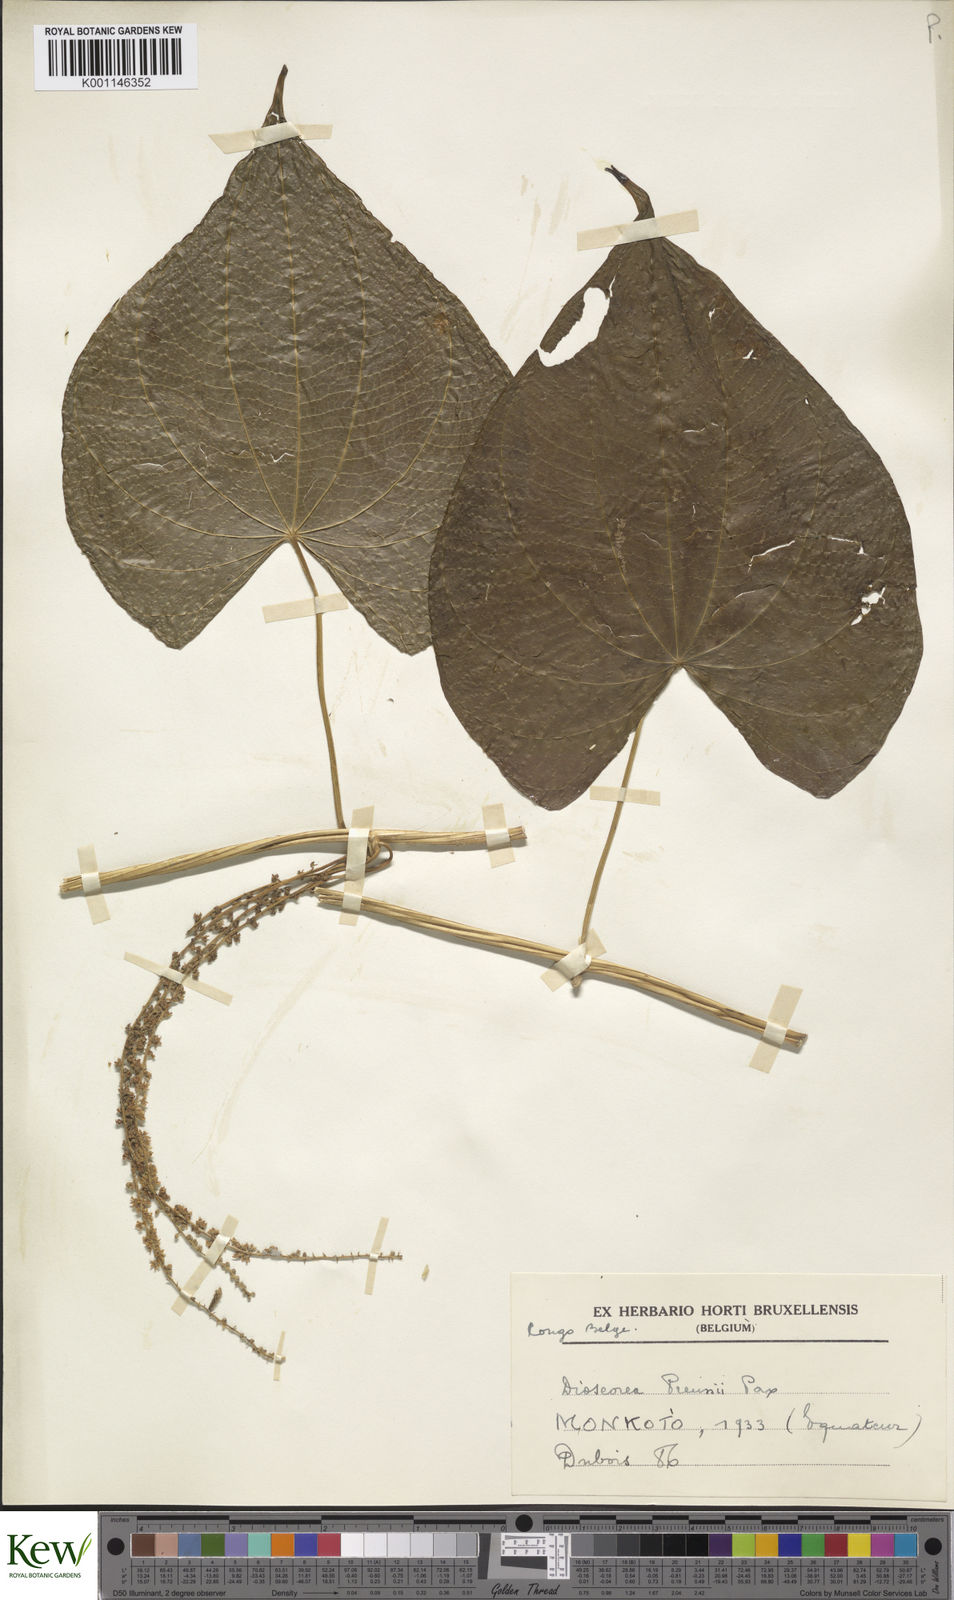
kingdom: Plantae
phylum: Tracheophyta
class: Liliopsida
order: Dioscoreales
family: Dioscoreaceae
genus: Dioscorea
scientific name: Dioscorea preussii
